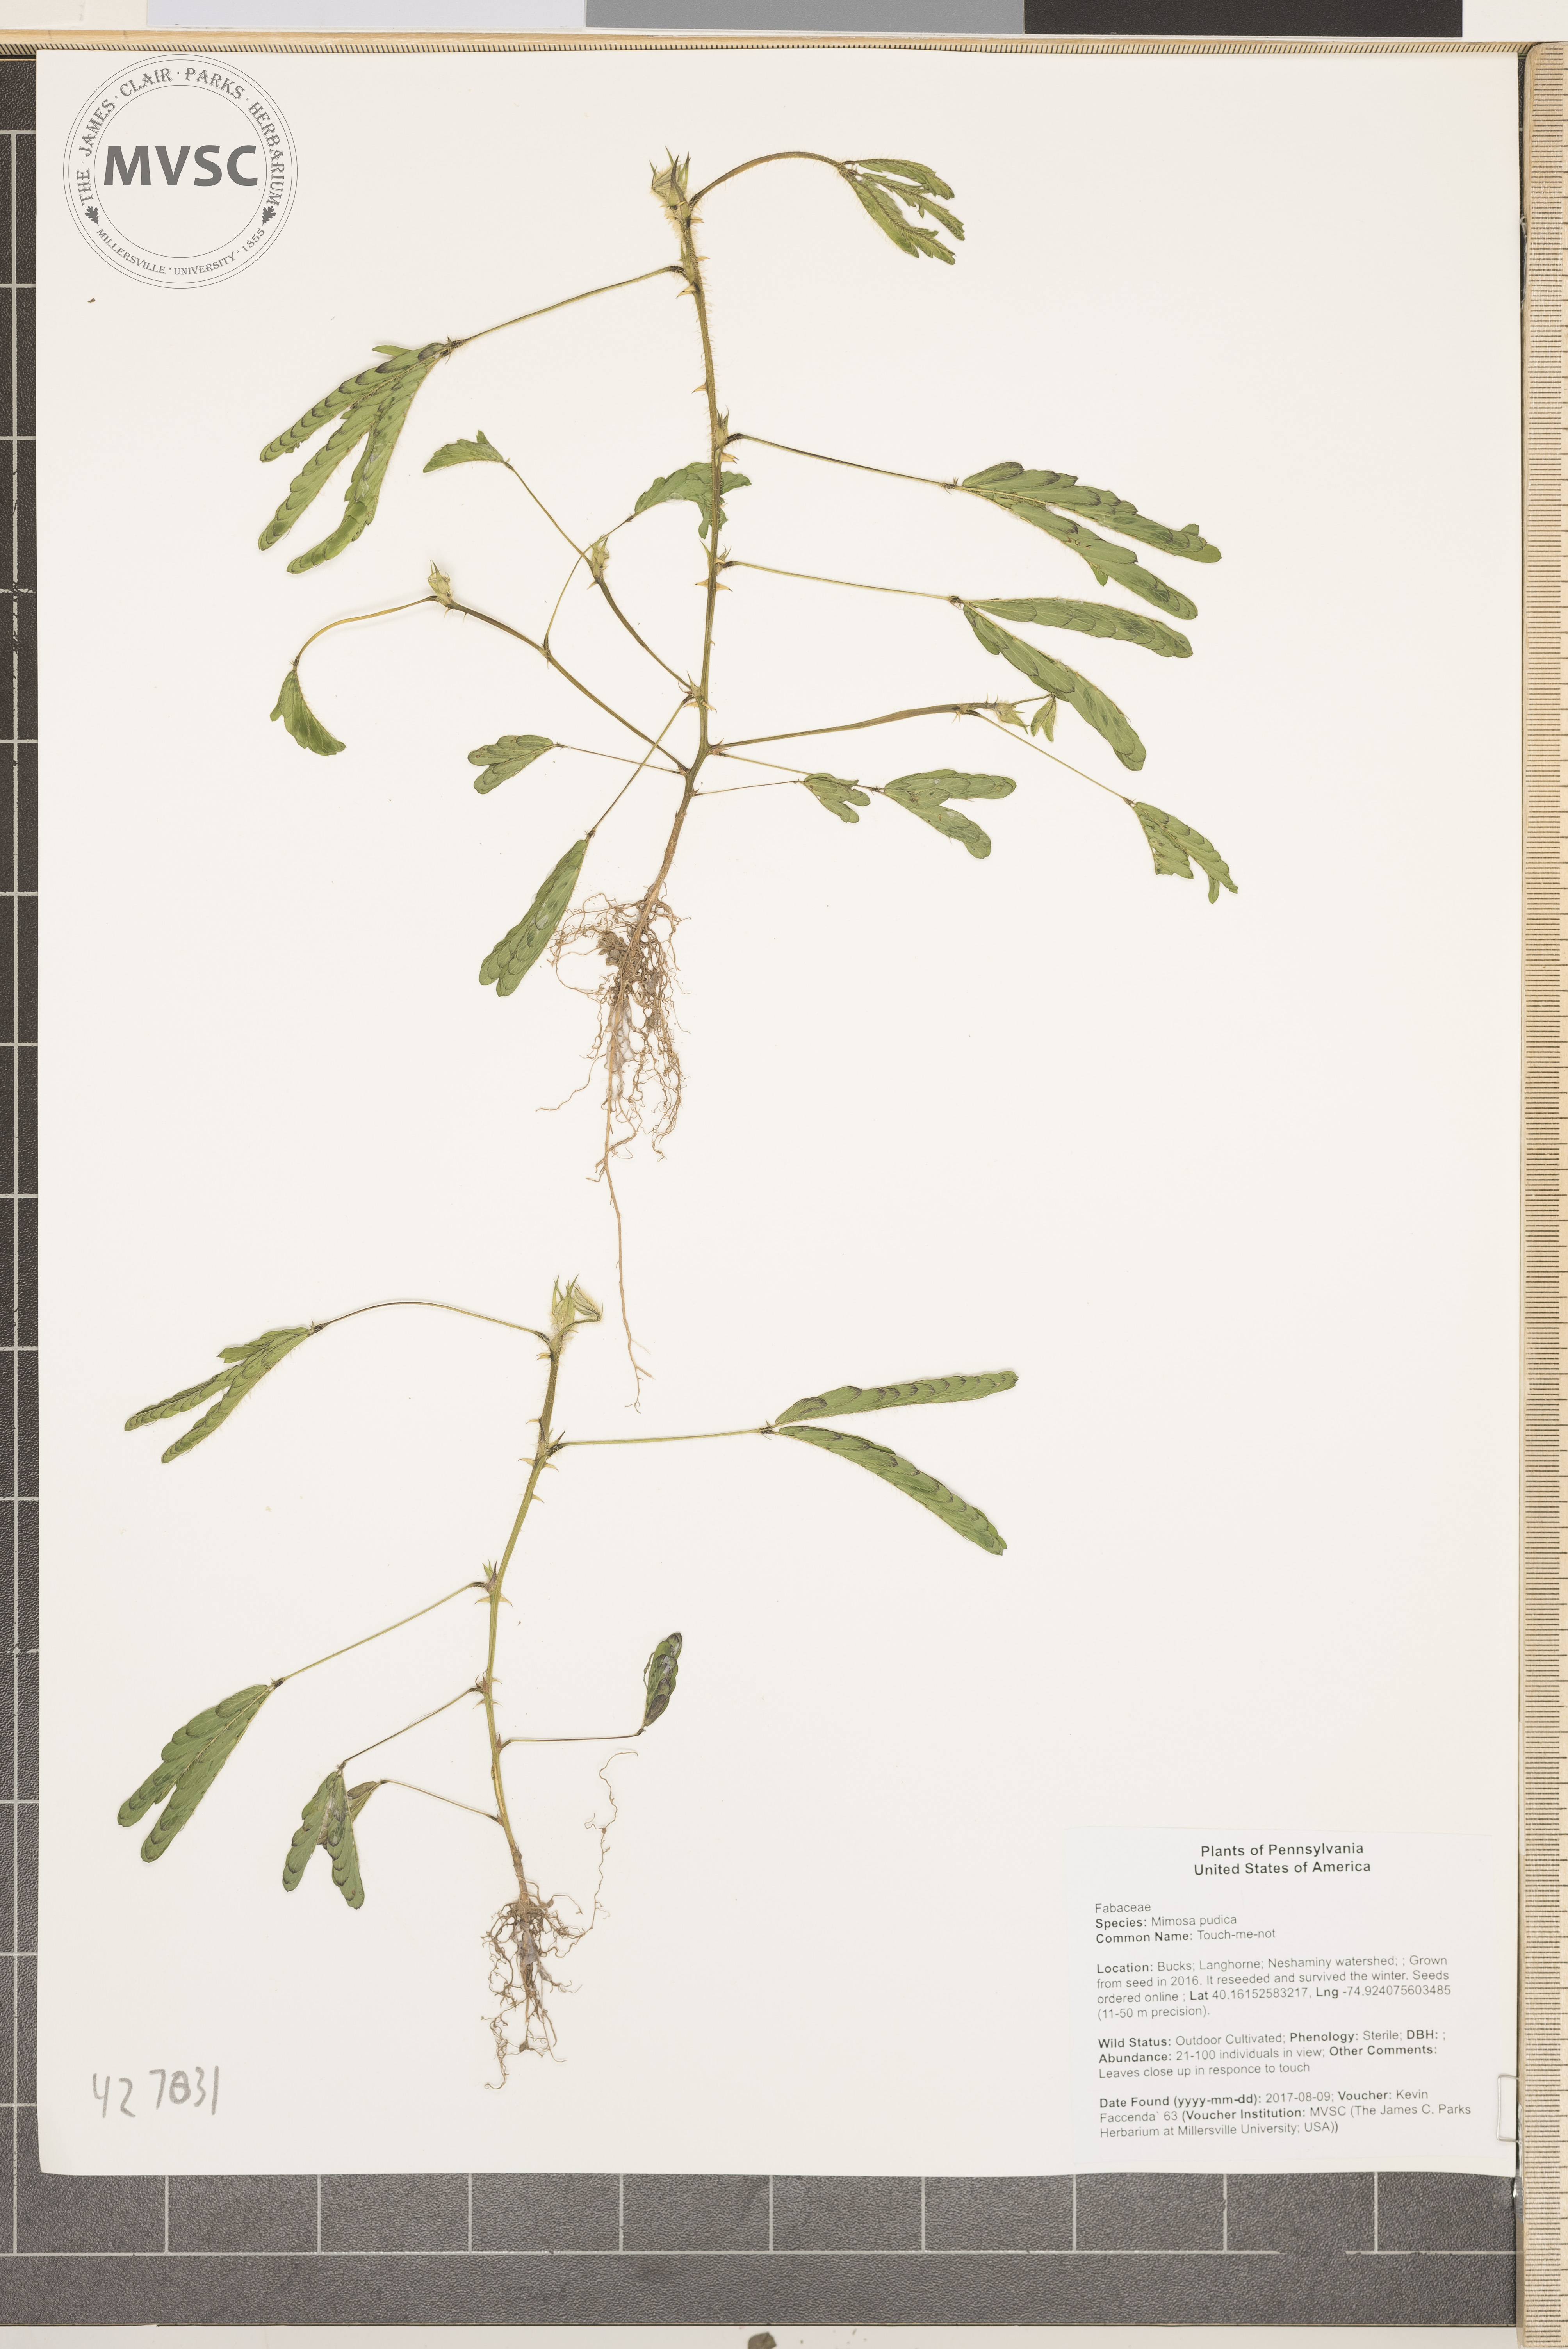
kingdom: Plantae
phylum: Tracheophyta
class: Magnoliopsida
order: Fabales
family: Fabaceae
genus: Mimosa
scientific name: Mimosa pudica
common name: Touch-me-not
